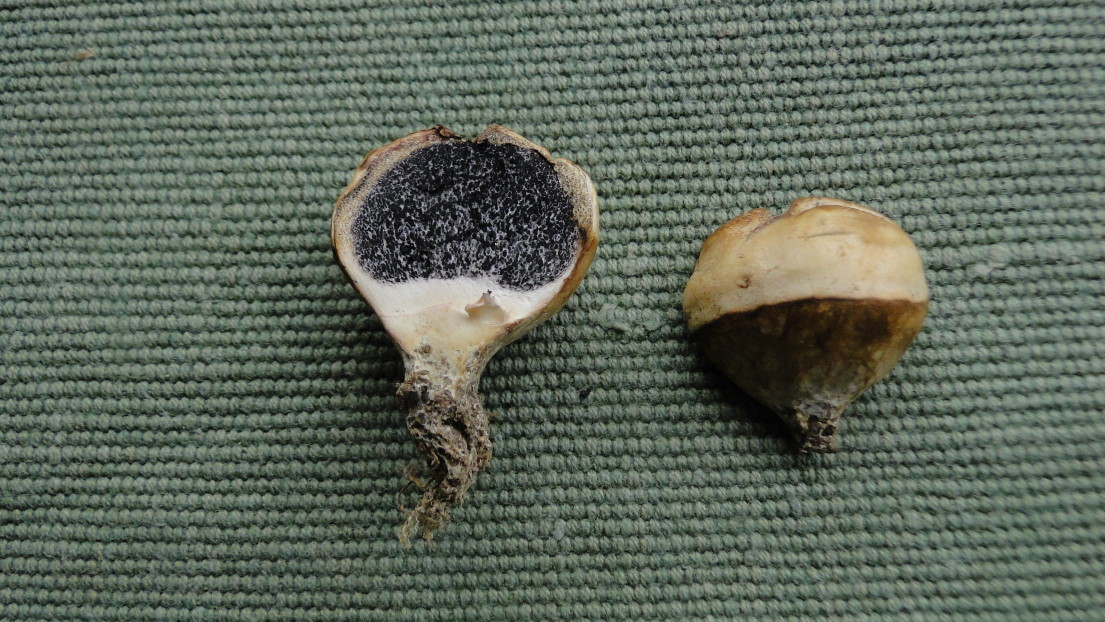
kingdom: Fungi
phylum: Basidiomycota
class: Agaricomycetes
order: Boletales
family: Sclerodermataceae
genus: Scleroderma
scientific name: Scleroderma bovista
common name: bovist-bruskbold
